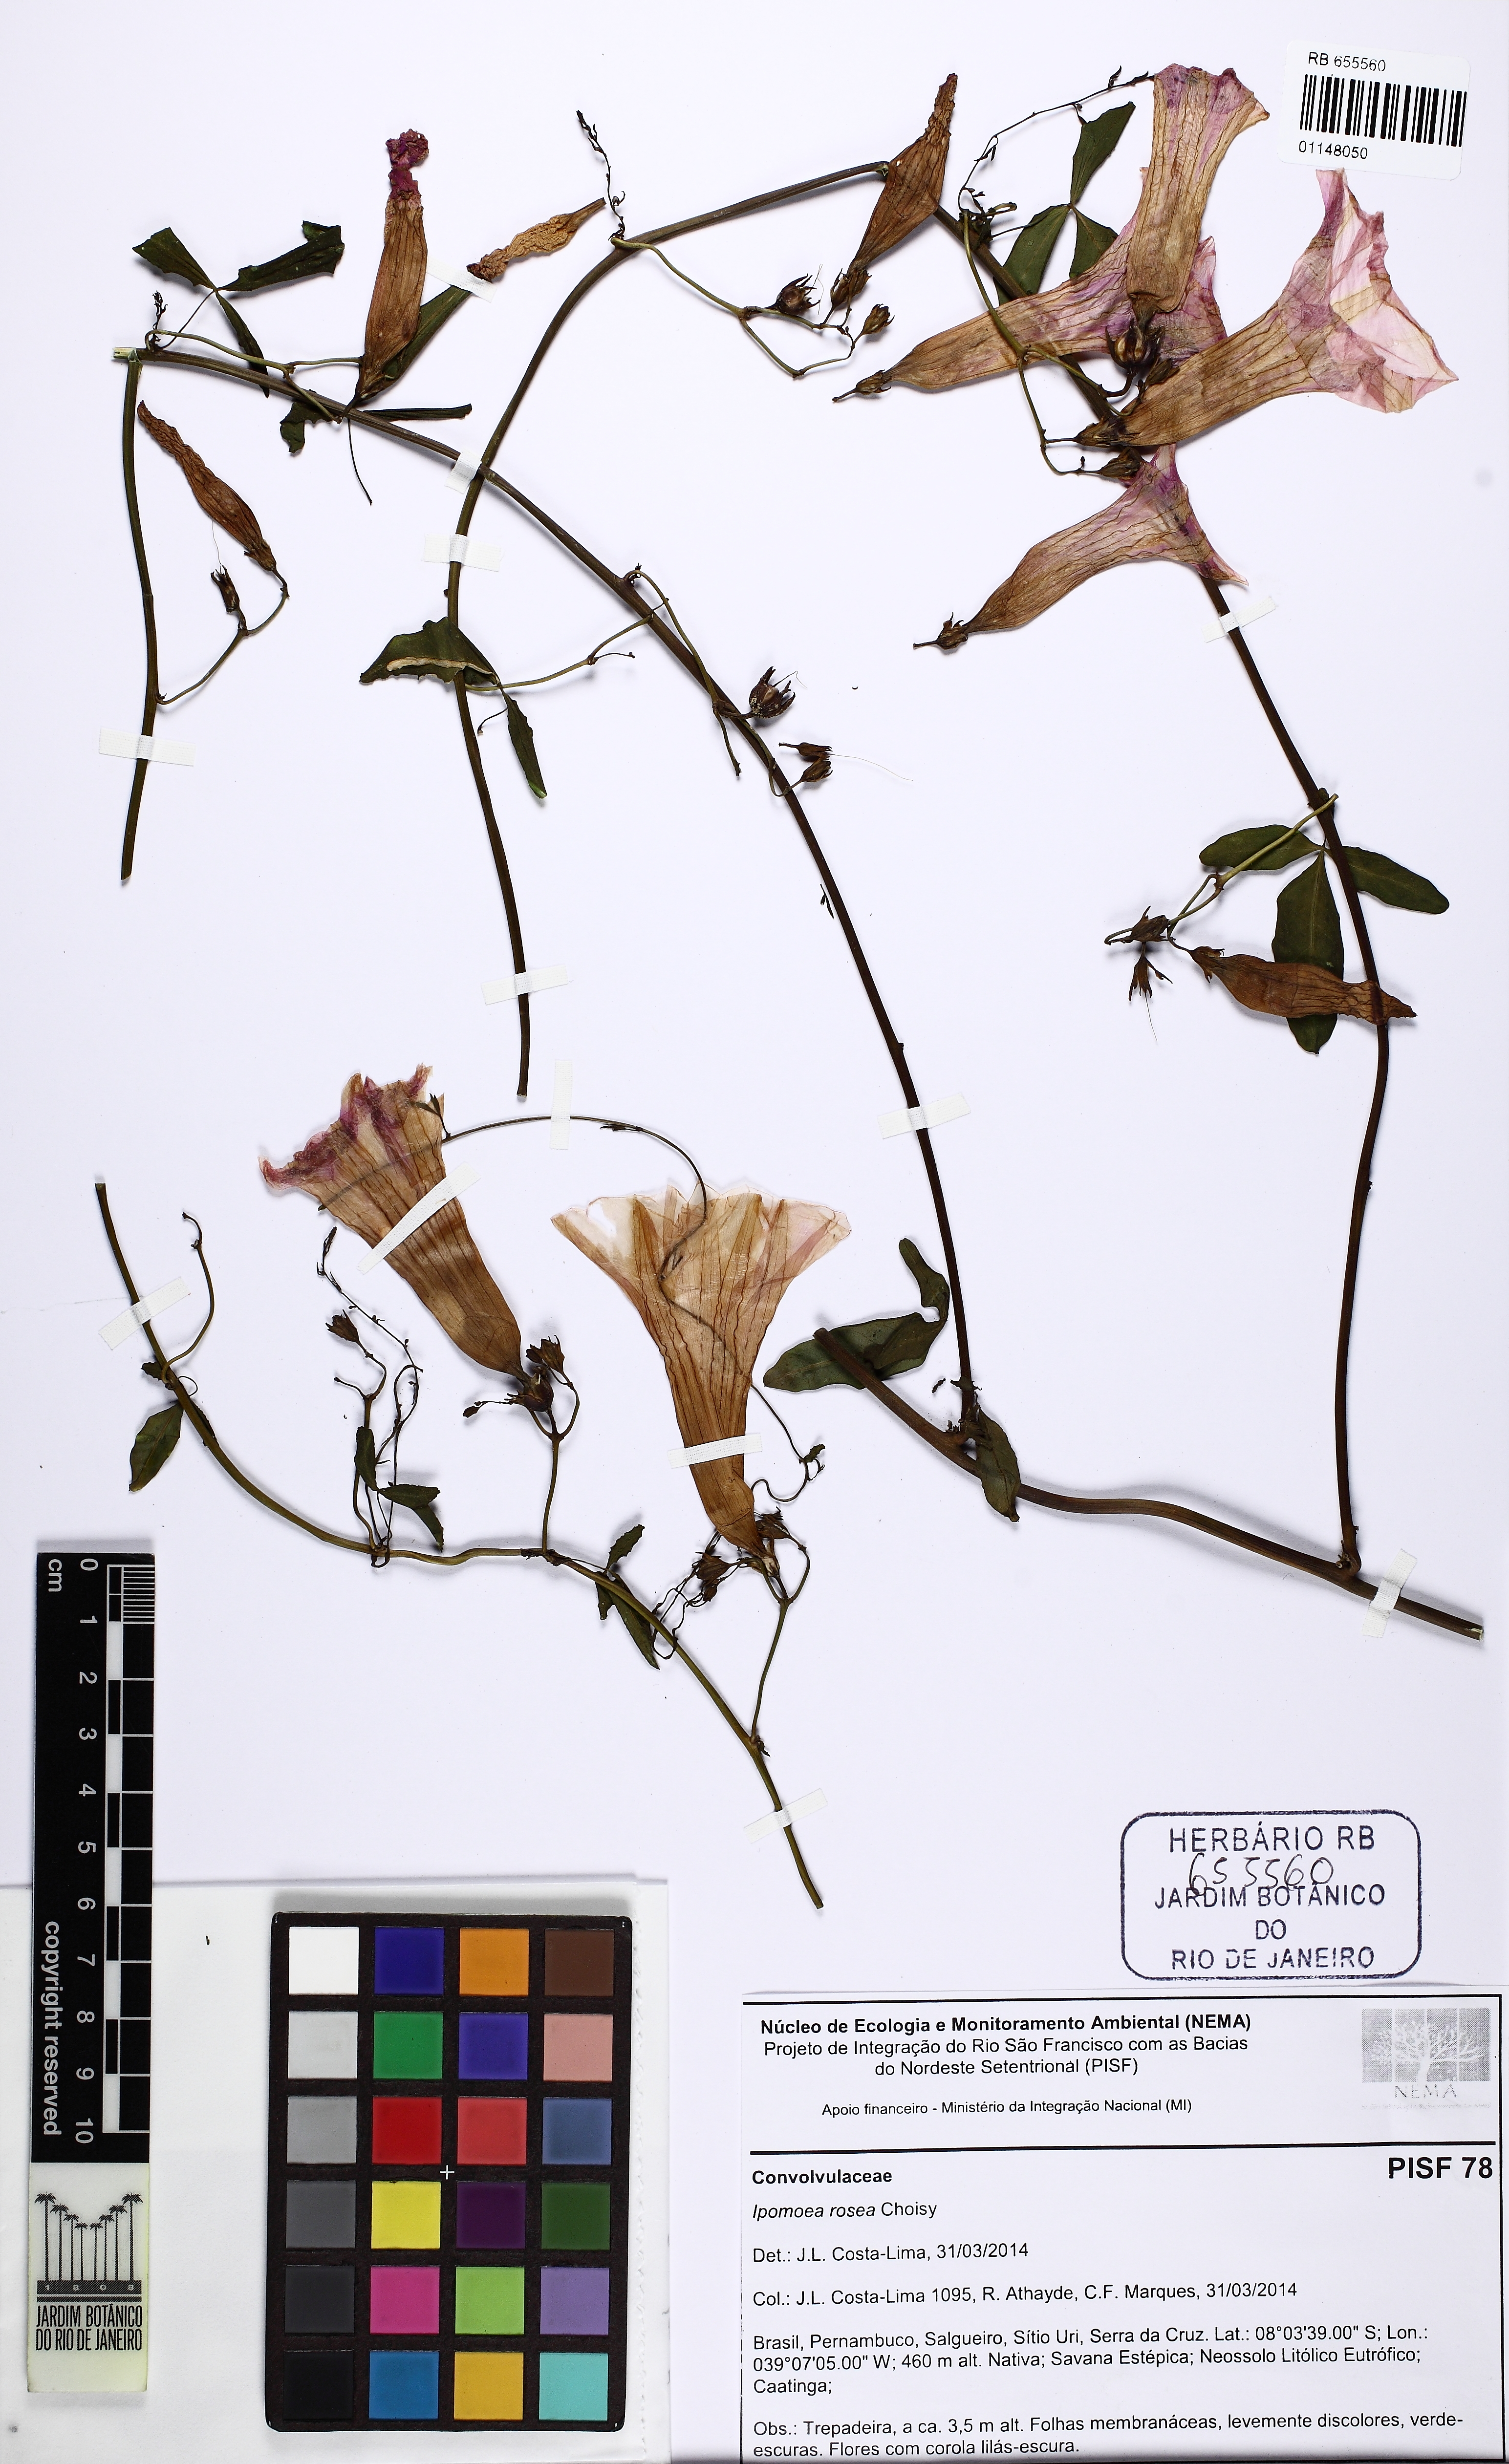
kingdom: Plantae
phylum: Tracheophyta
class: Magnoliopsida
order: Solanales
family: Convolvulaceae
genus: Ipomoea
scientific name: Ipomoea rosea
